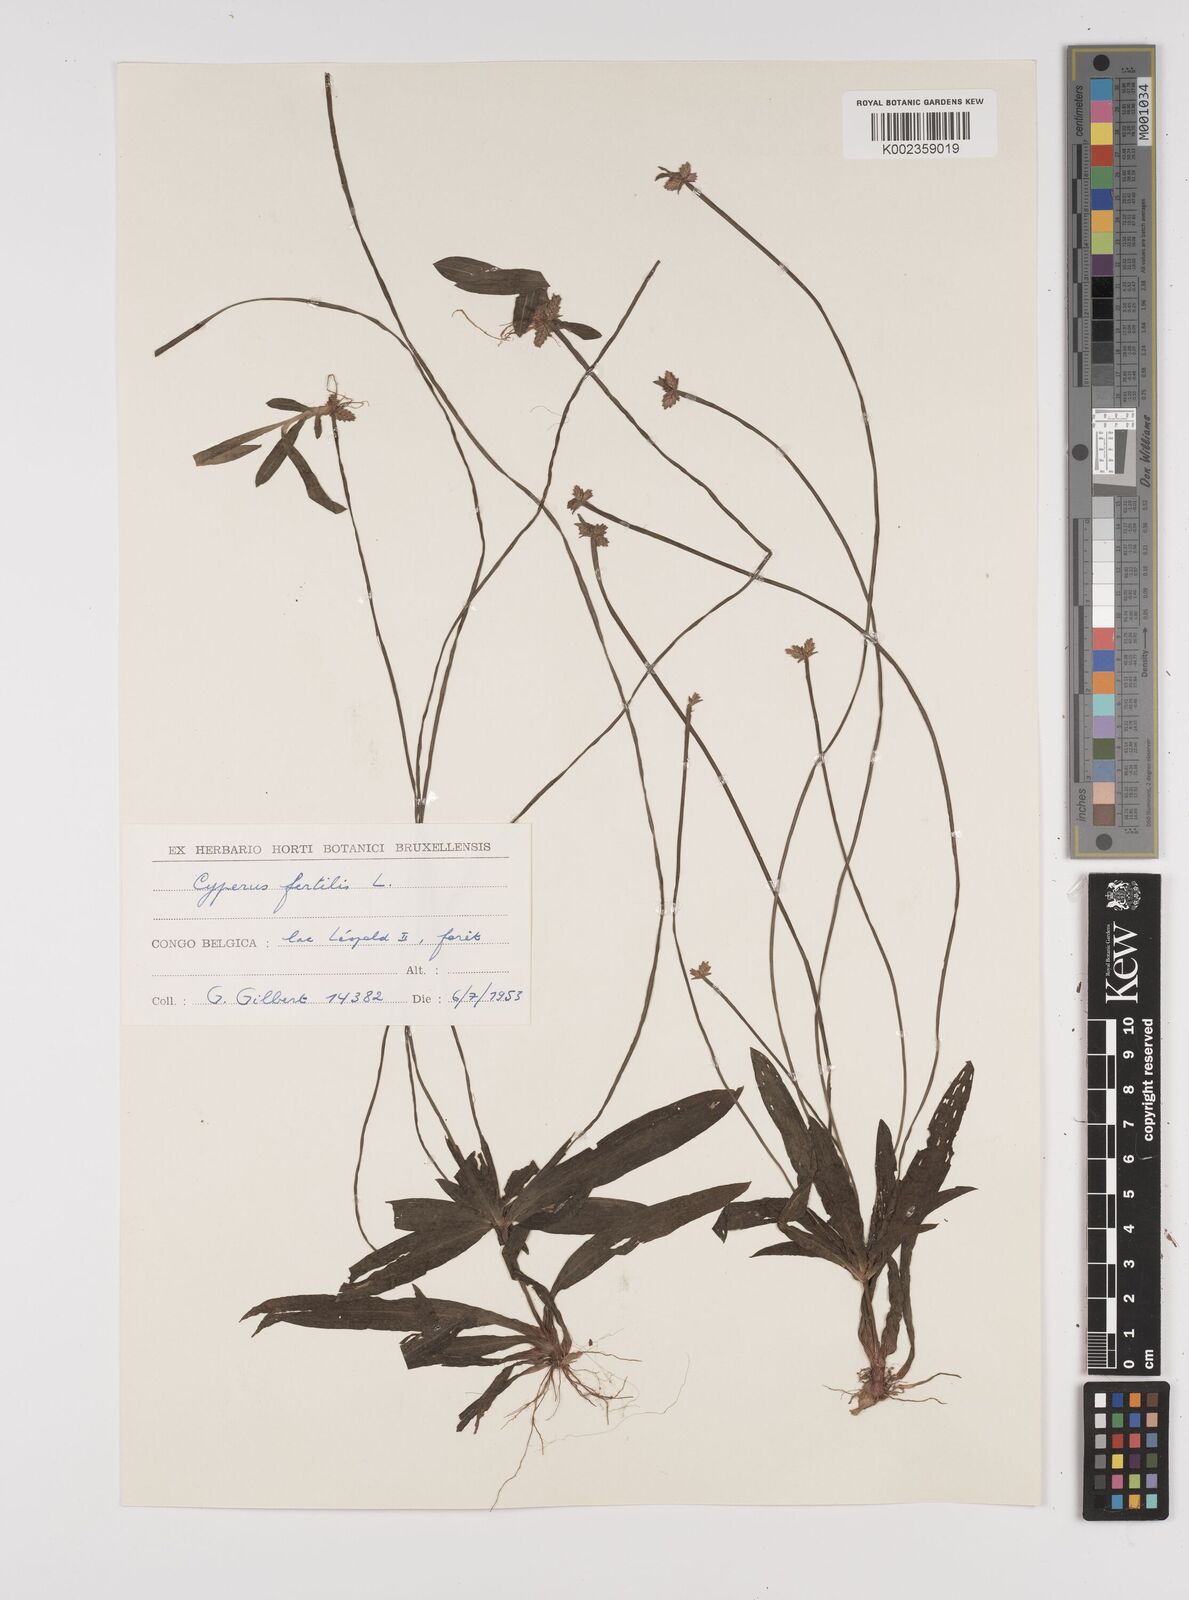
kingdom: Plantae
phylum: Tracheophyta
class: Liliopsida
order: Poales
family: Cyperaceae
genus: Cyperus
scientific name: Cyperus fertilis
